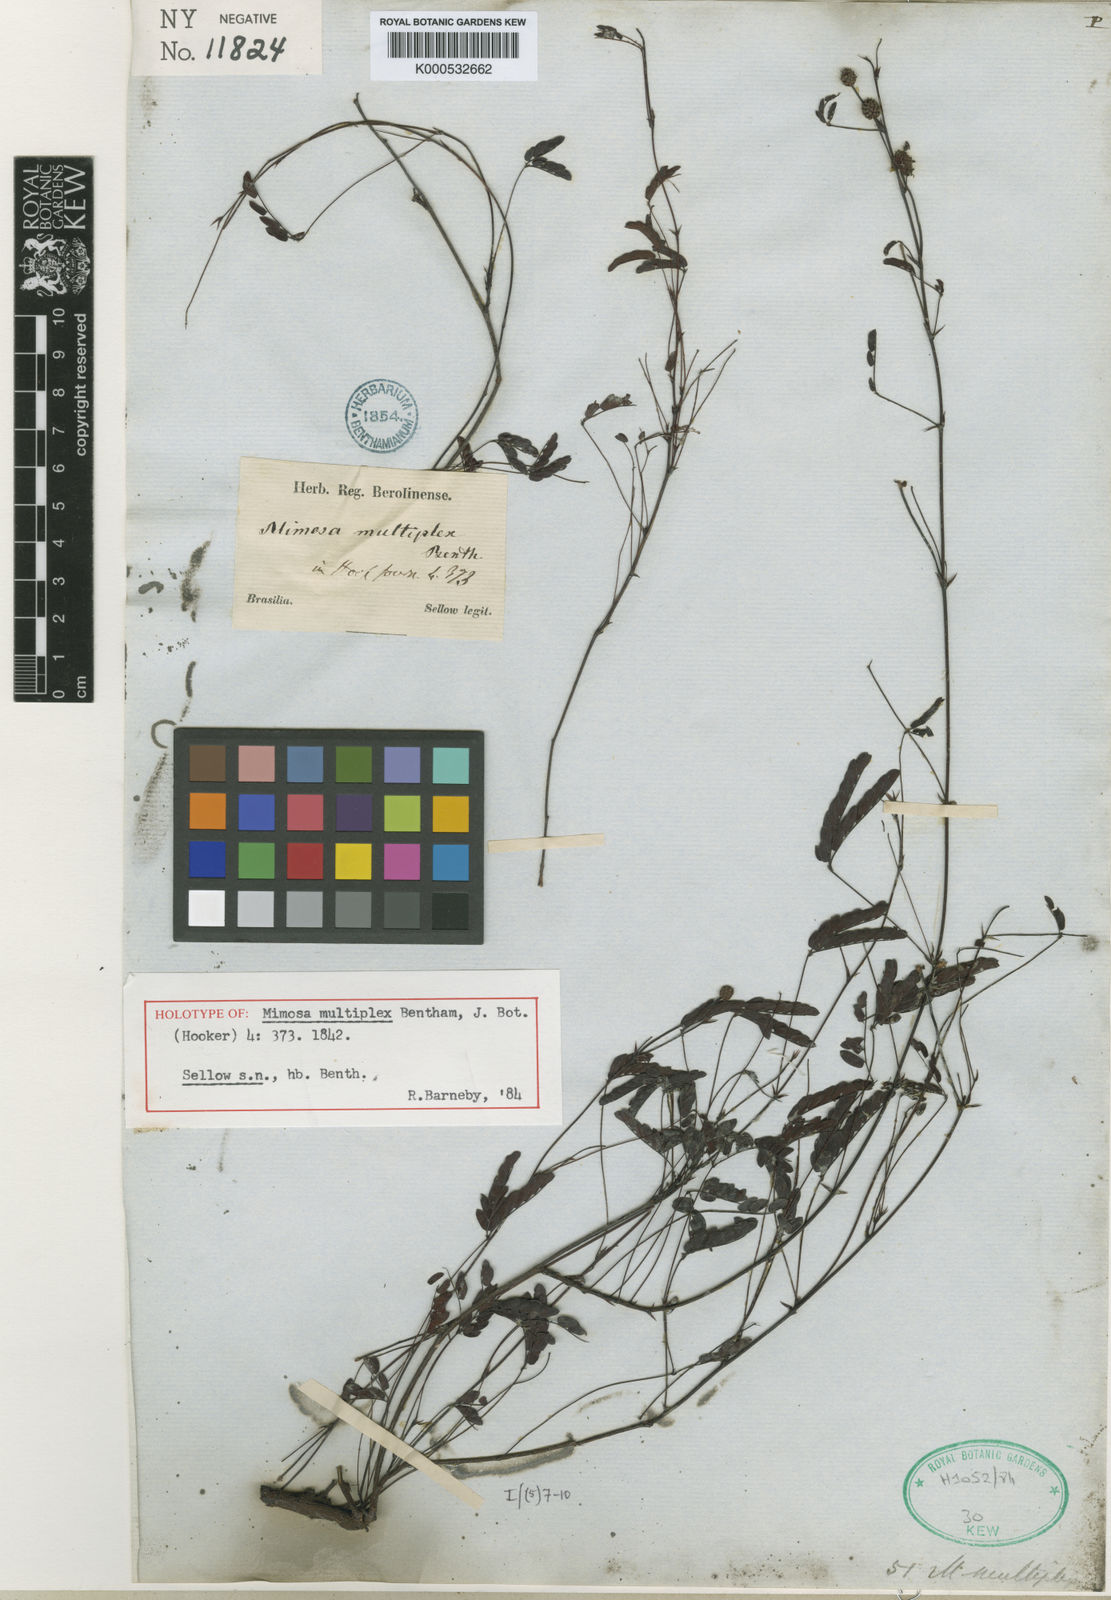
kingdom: Plantae
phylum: Tracheophyta
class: Magnoliopsida
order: Fabales
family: Fabaceae
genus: Mimosa
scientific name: Mimosa multiplex
